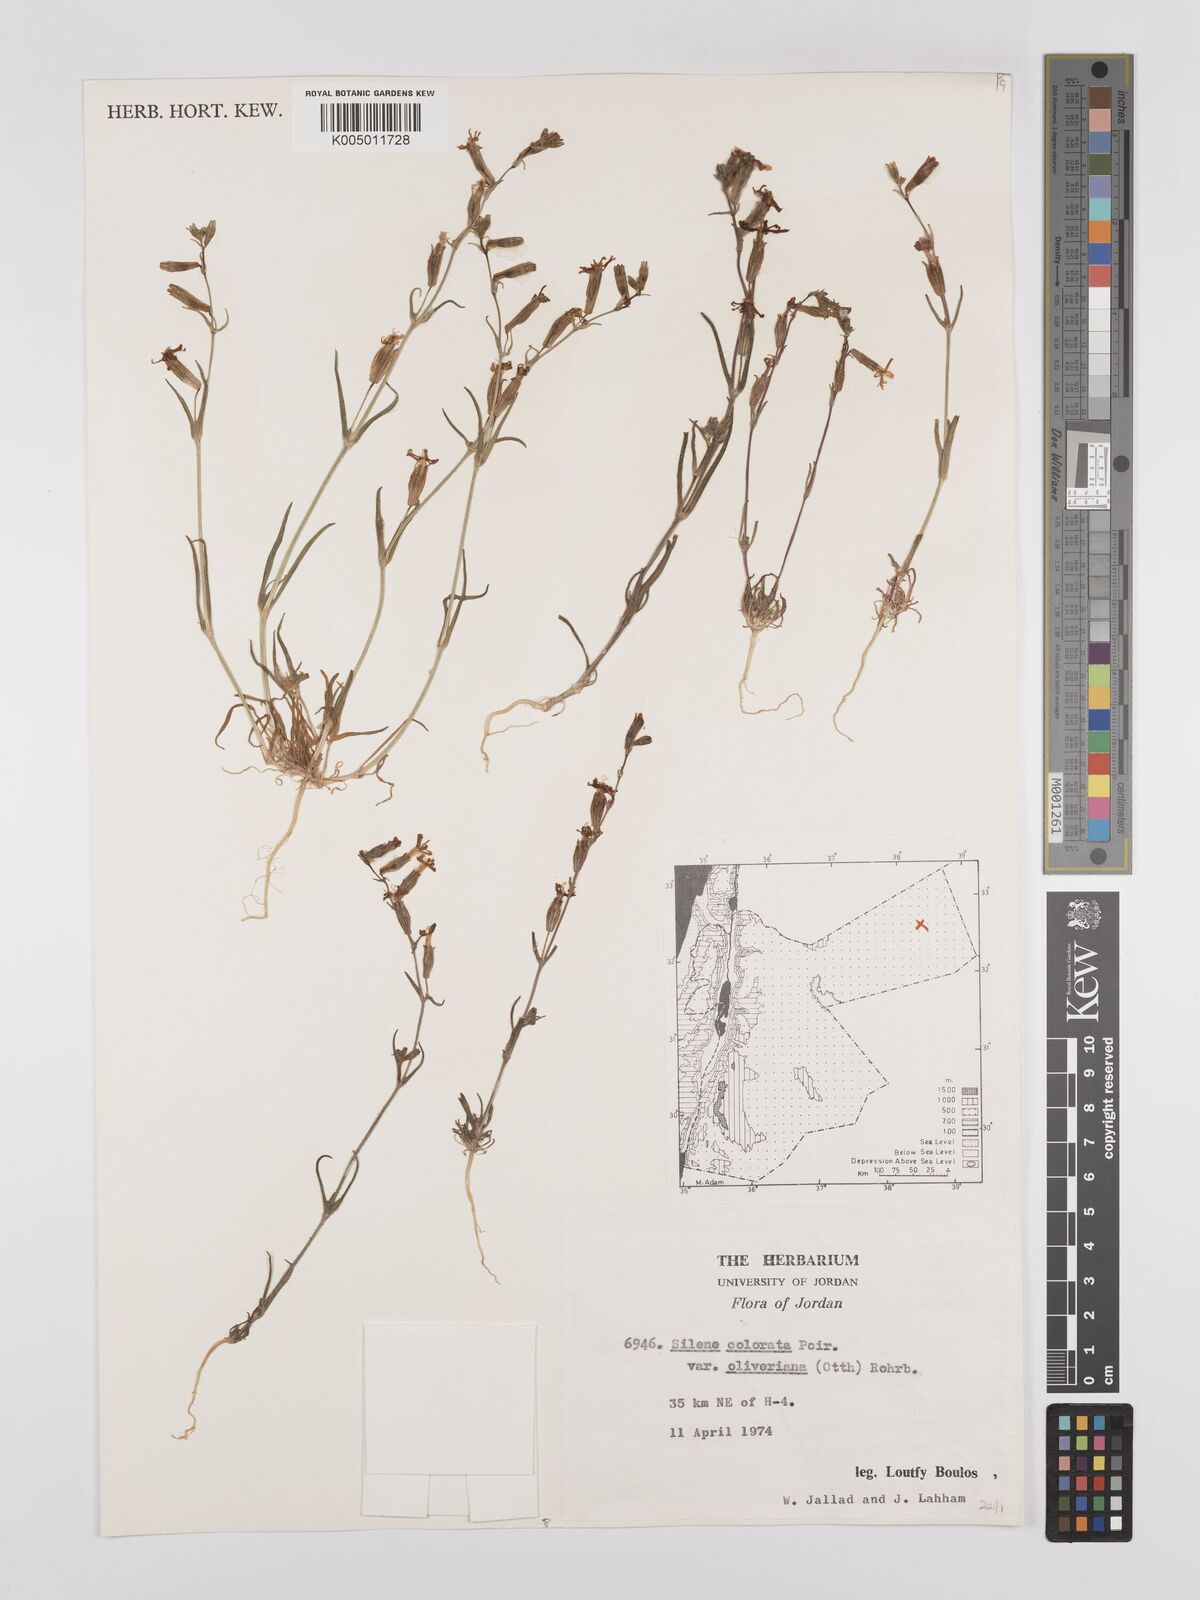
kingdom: Plantae
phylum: Tracheophyta
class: Magnoliopsida
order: Caryophyllales
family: Caryophyllaceae
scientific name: Caryophyllaceae
